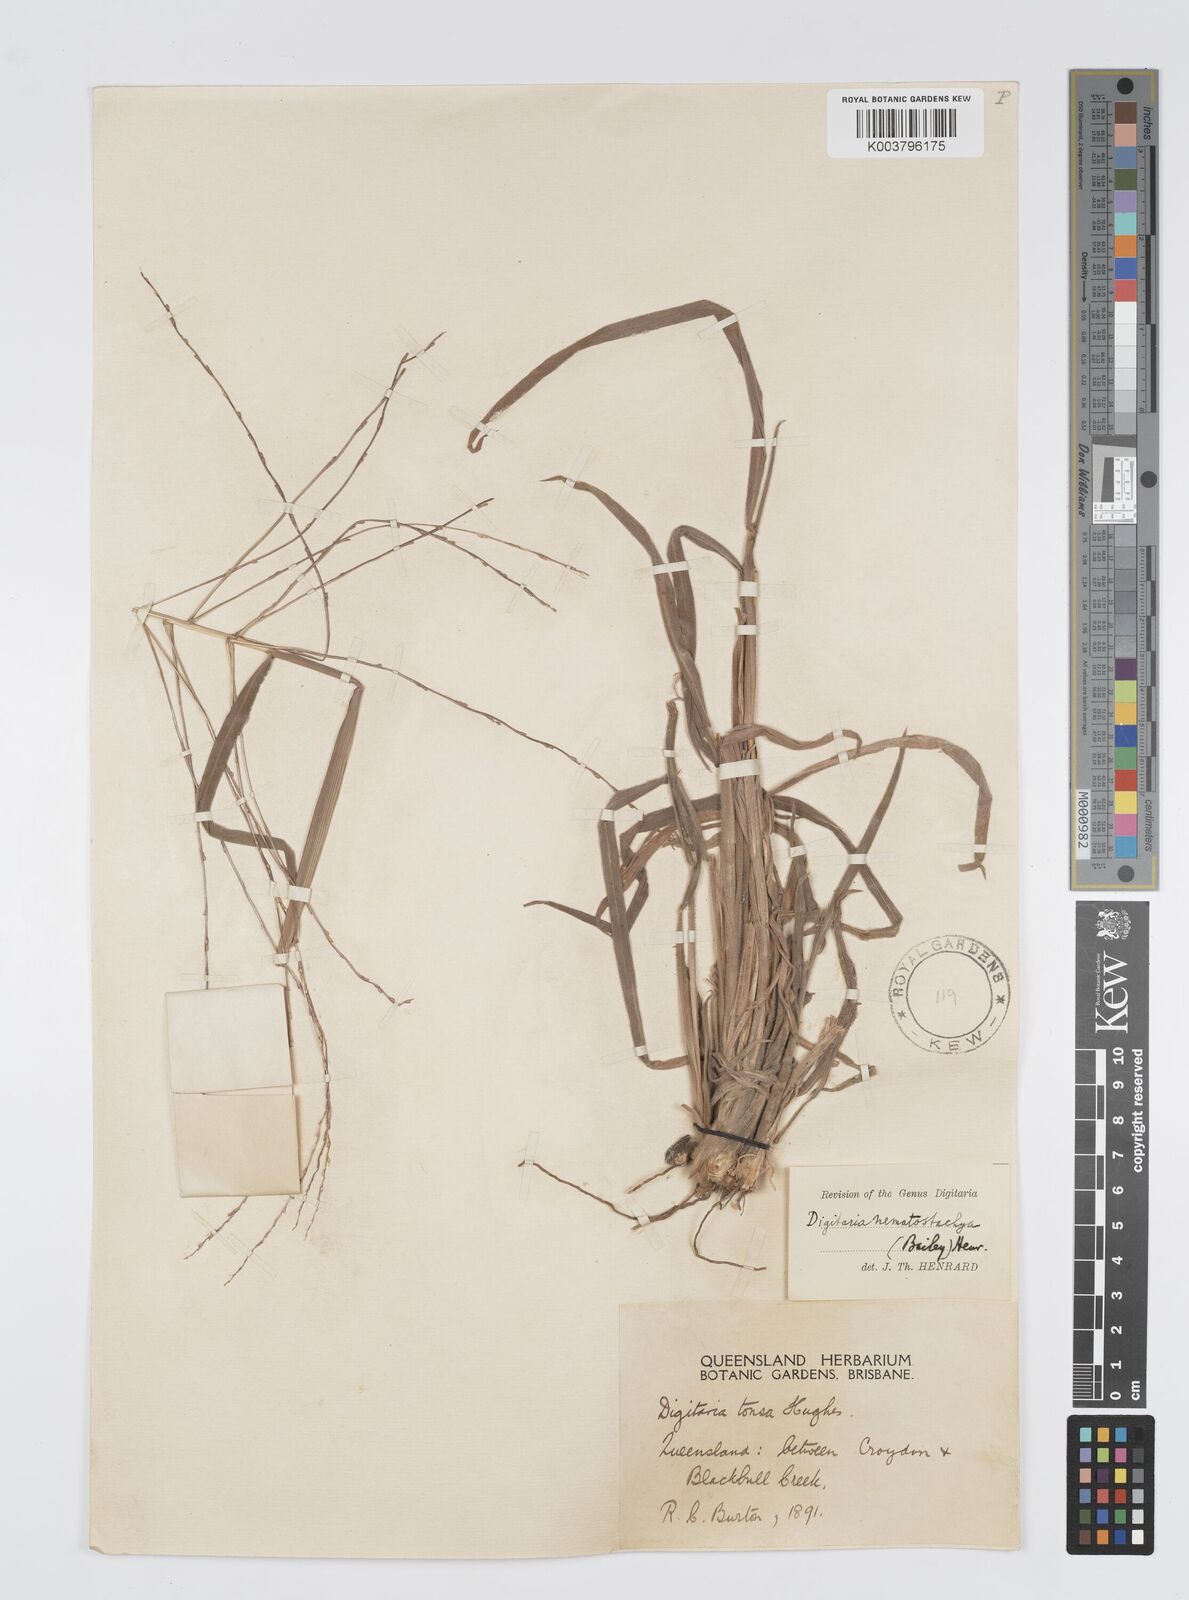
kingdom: Plantae
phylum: Tracheophyta
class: Liliopsida
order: Poales
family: Poaceae
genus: Digitaria
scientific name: Digitaria nematostachya
